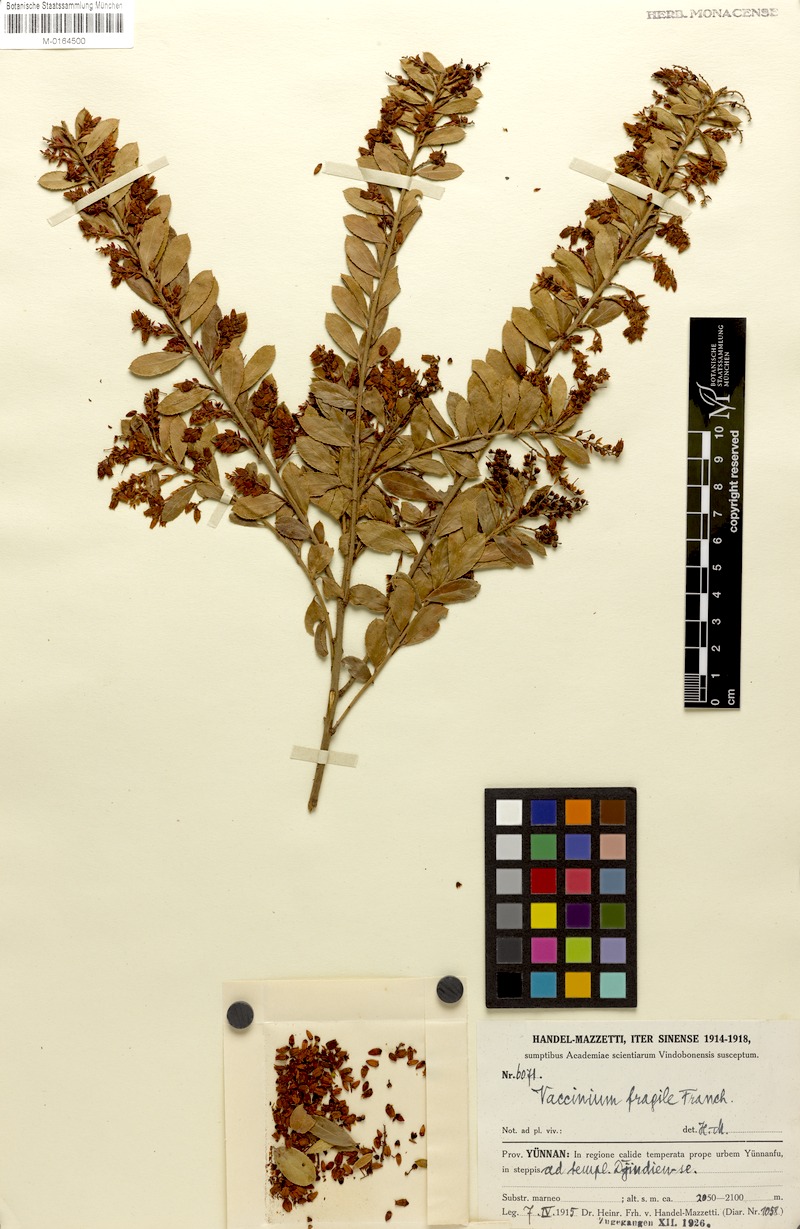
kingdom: Plantae
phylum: Tracheophyta
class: Magnoliopsida
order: Ericales
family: Ericaceae
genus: Vaccinium
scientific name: Vaccinium fragile
